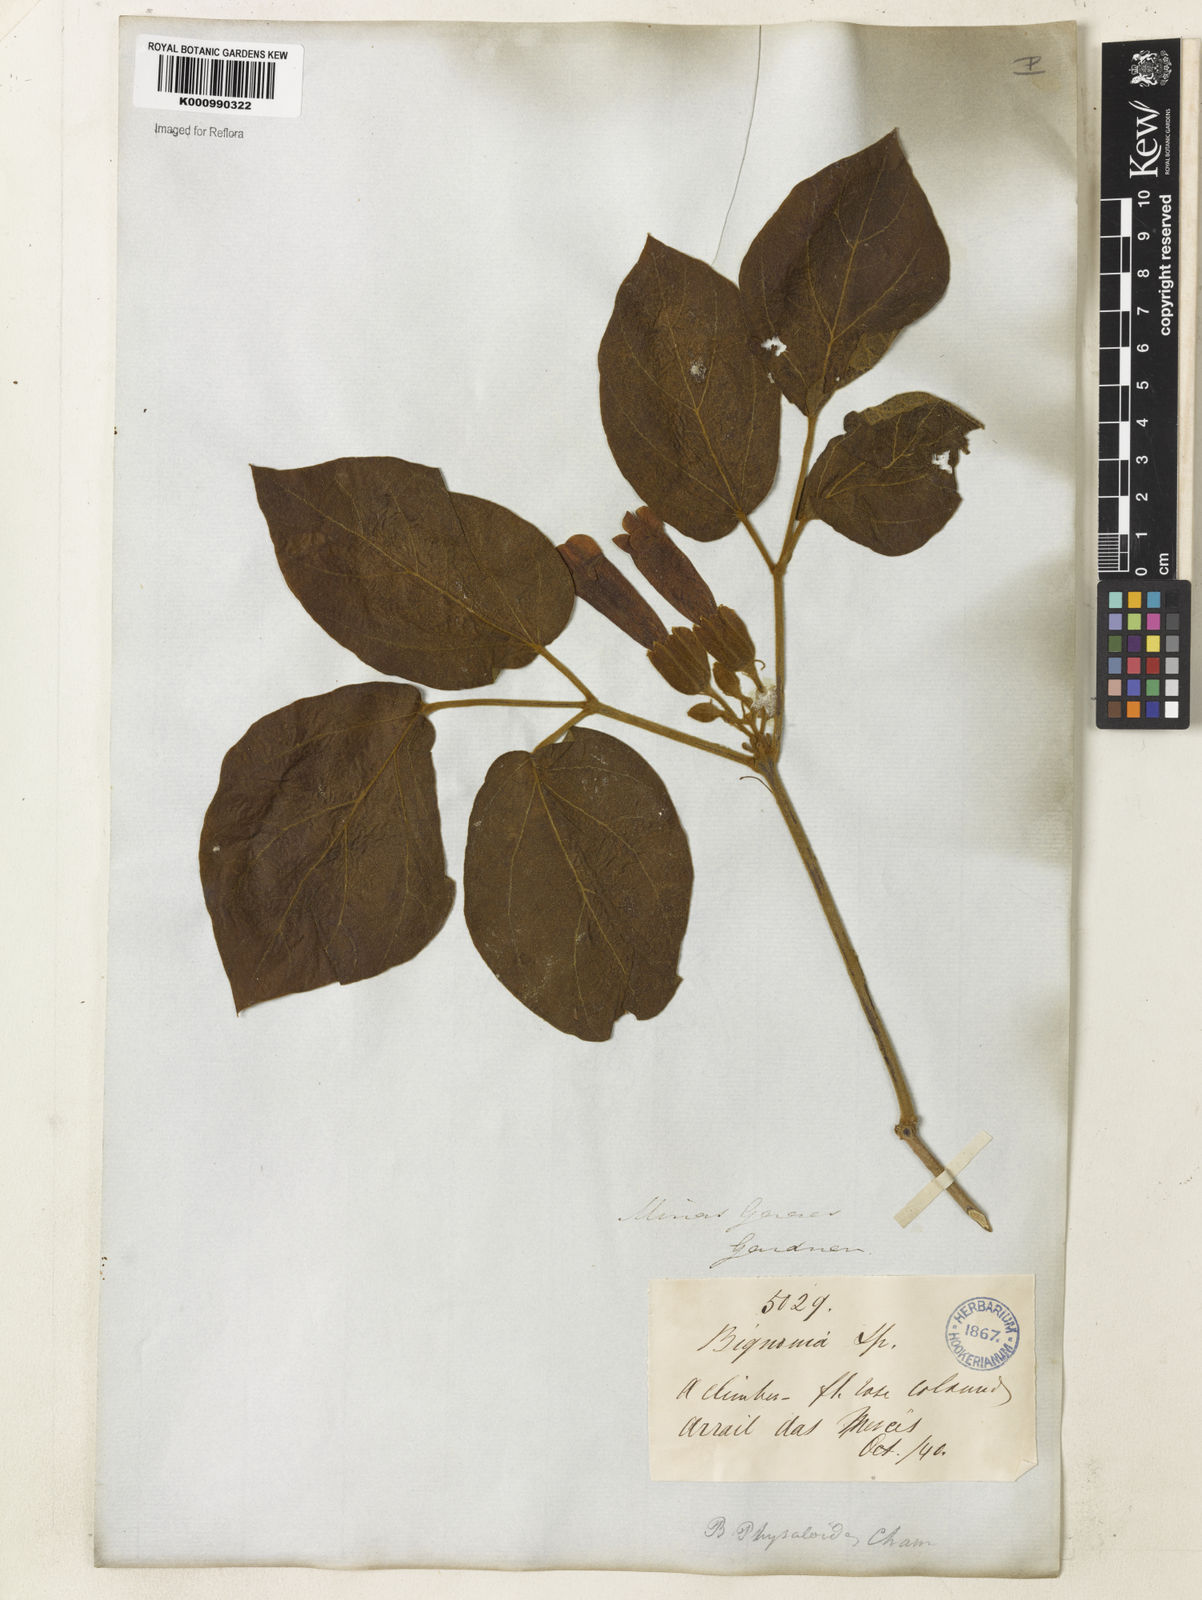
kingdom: Plantae
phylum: Tracheophyta
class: Magnoliopsida
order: Lamiales
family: Bignoniaceae
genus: Stizophyllum
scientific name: Stizophyllum perforatum
